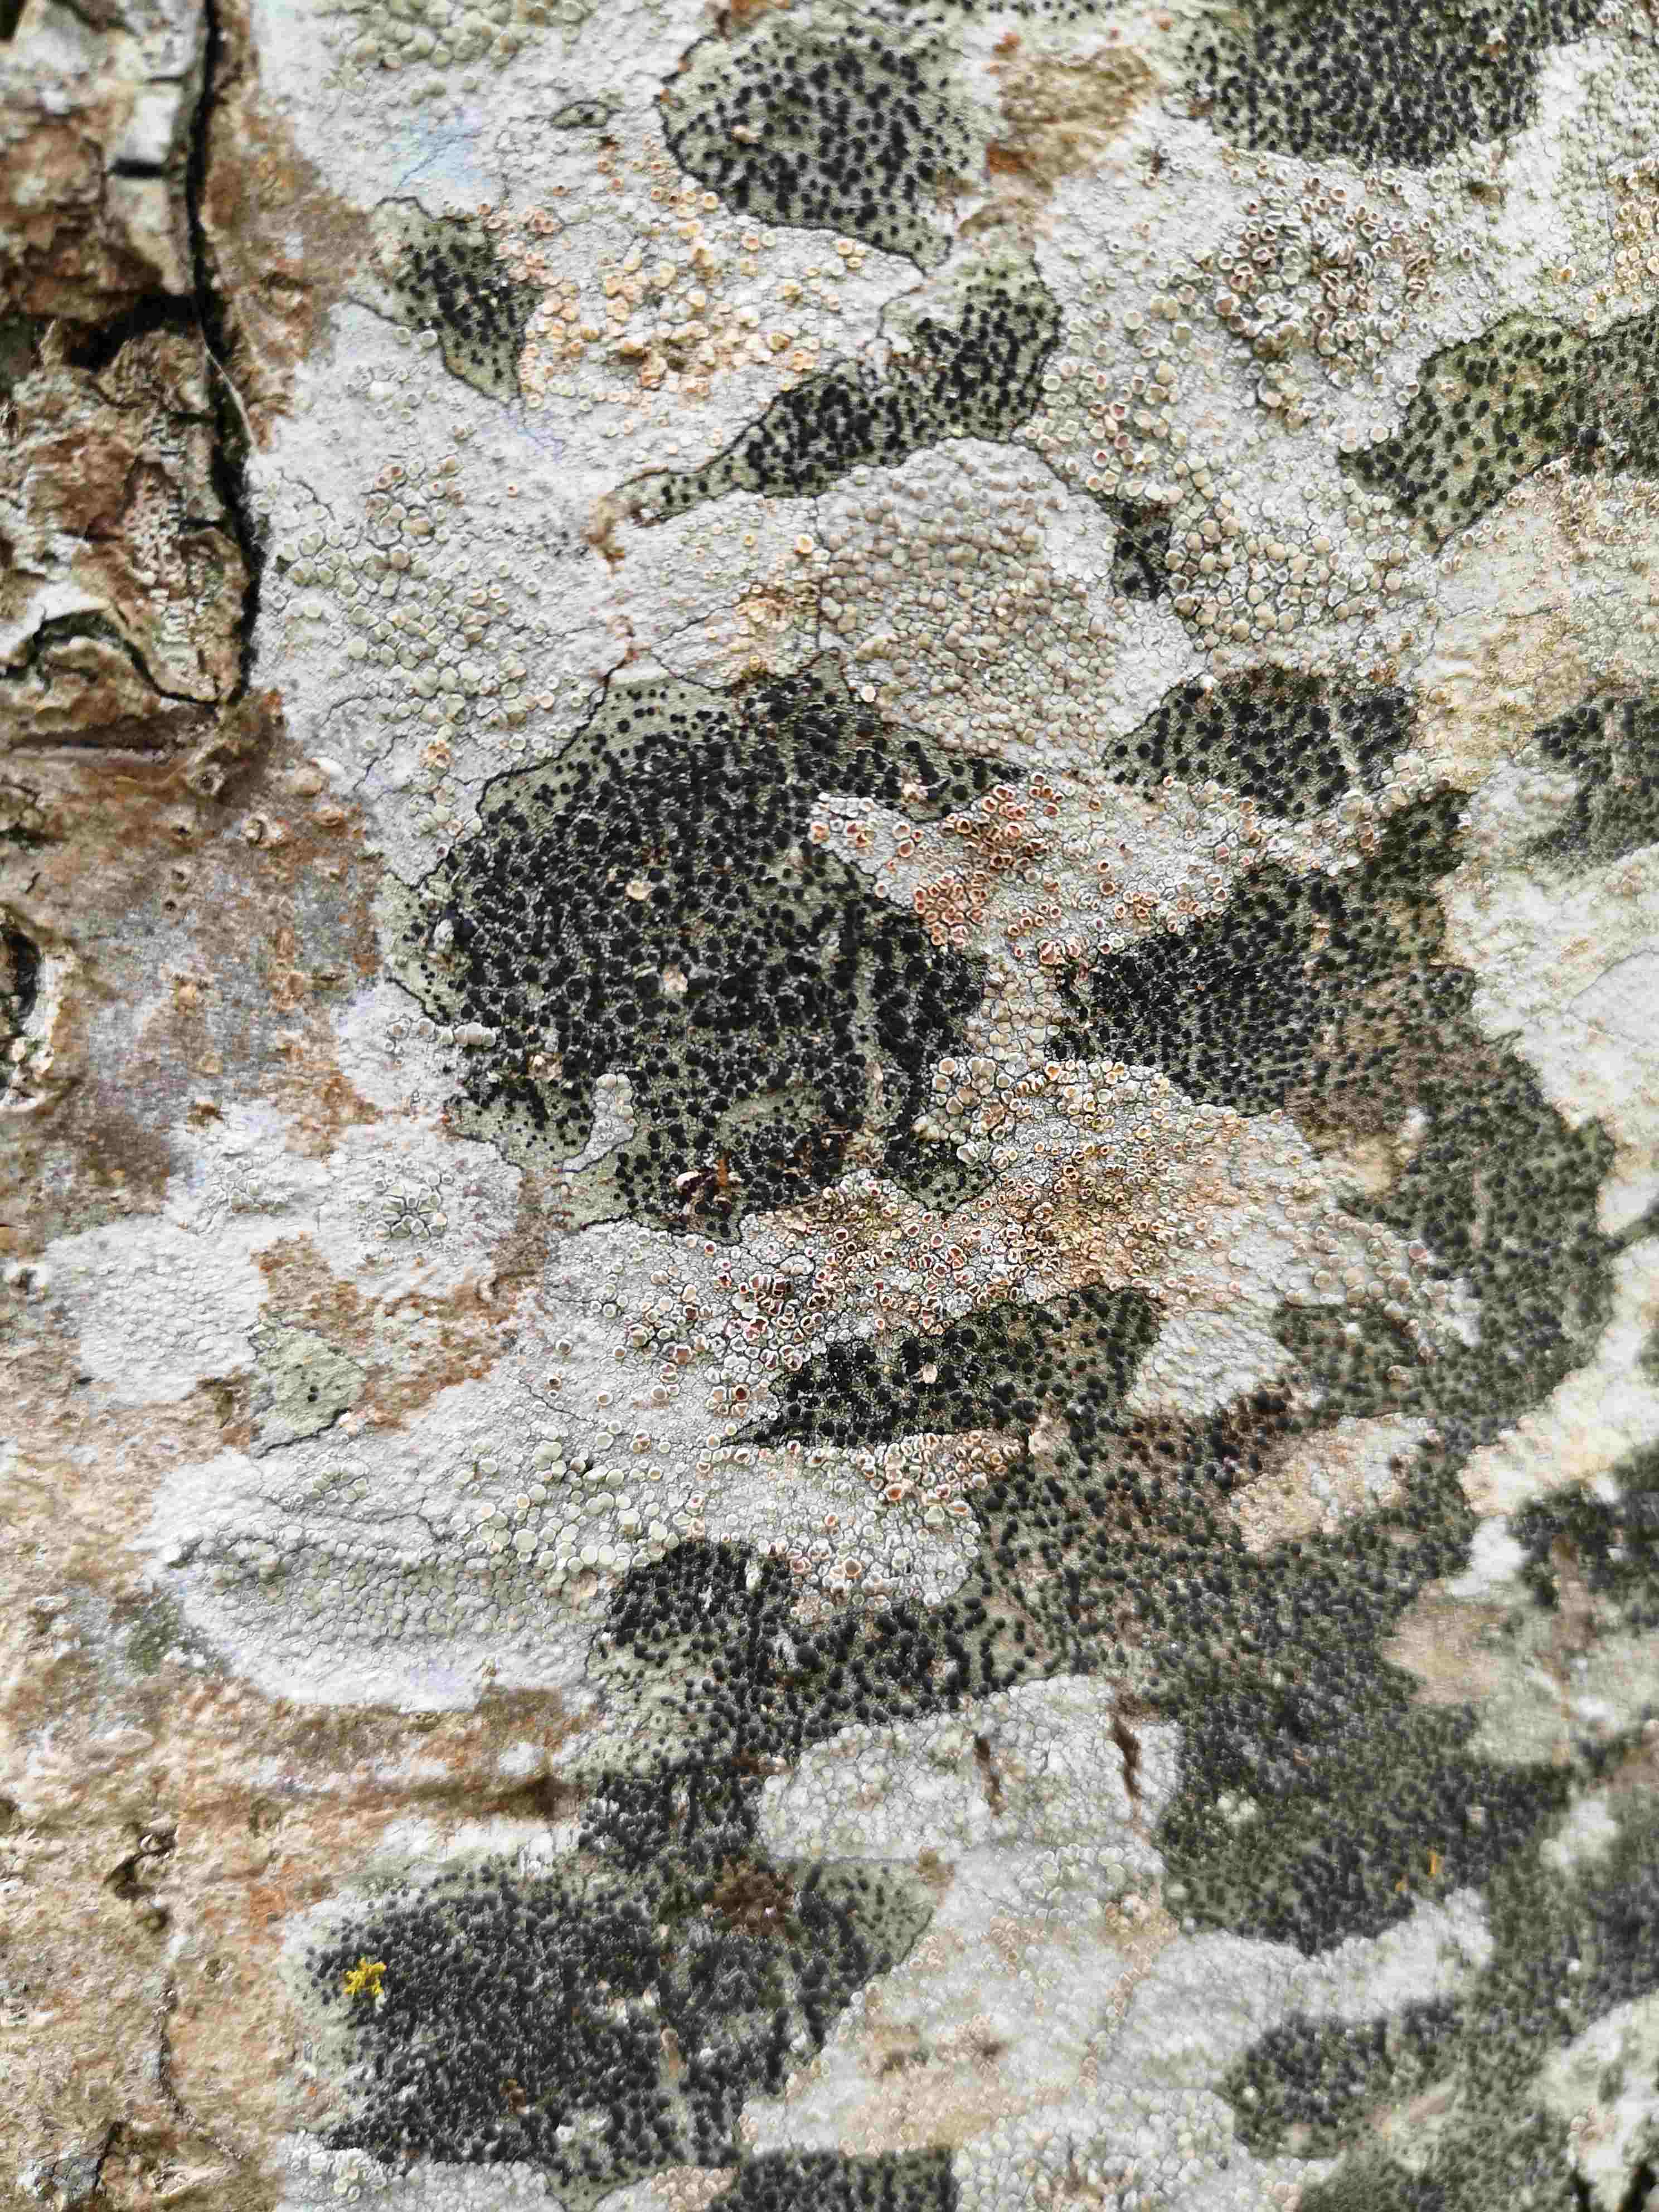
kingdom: Fungi
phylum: Ascomycota
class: Lecanoromycetes
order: Lecanorales
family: Lecanoraceae
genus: Lecidella
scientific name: Lecidella elaeochroma
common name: grågrøn skivelav
